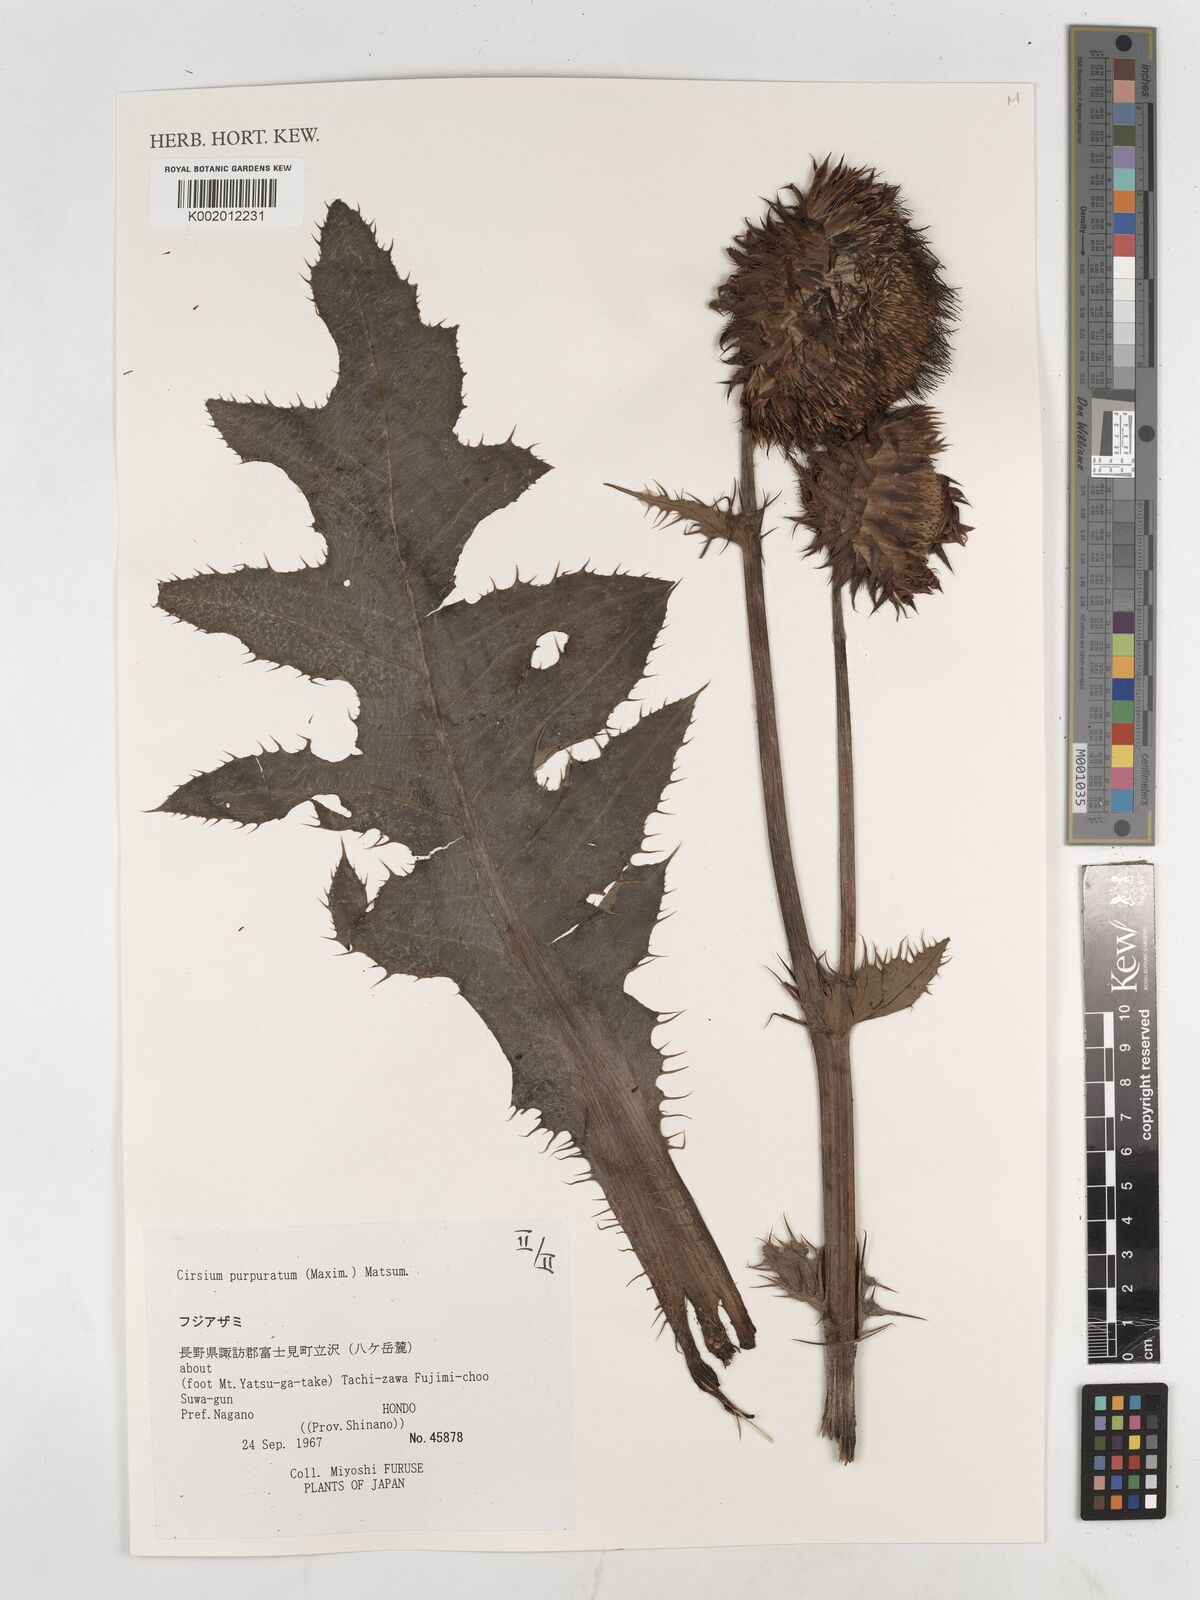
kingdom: Plantae
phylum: Tracheophyta
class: Magnoliopsida
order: Asterales
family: Asteraceae
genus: Cirsium
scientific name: Cirsium purpuratum
